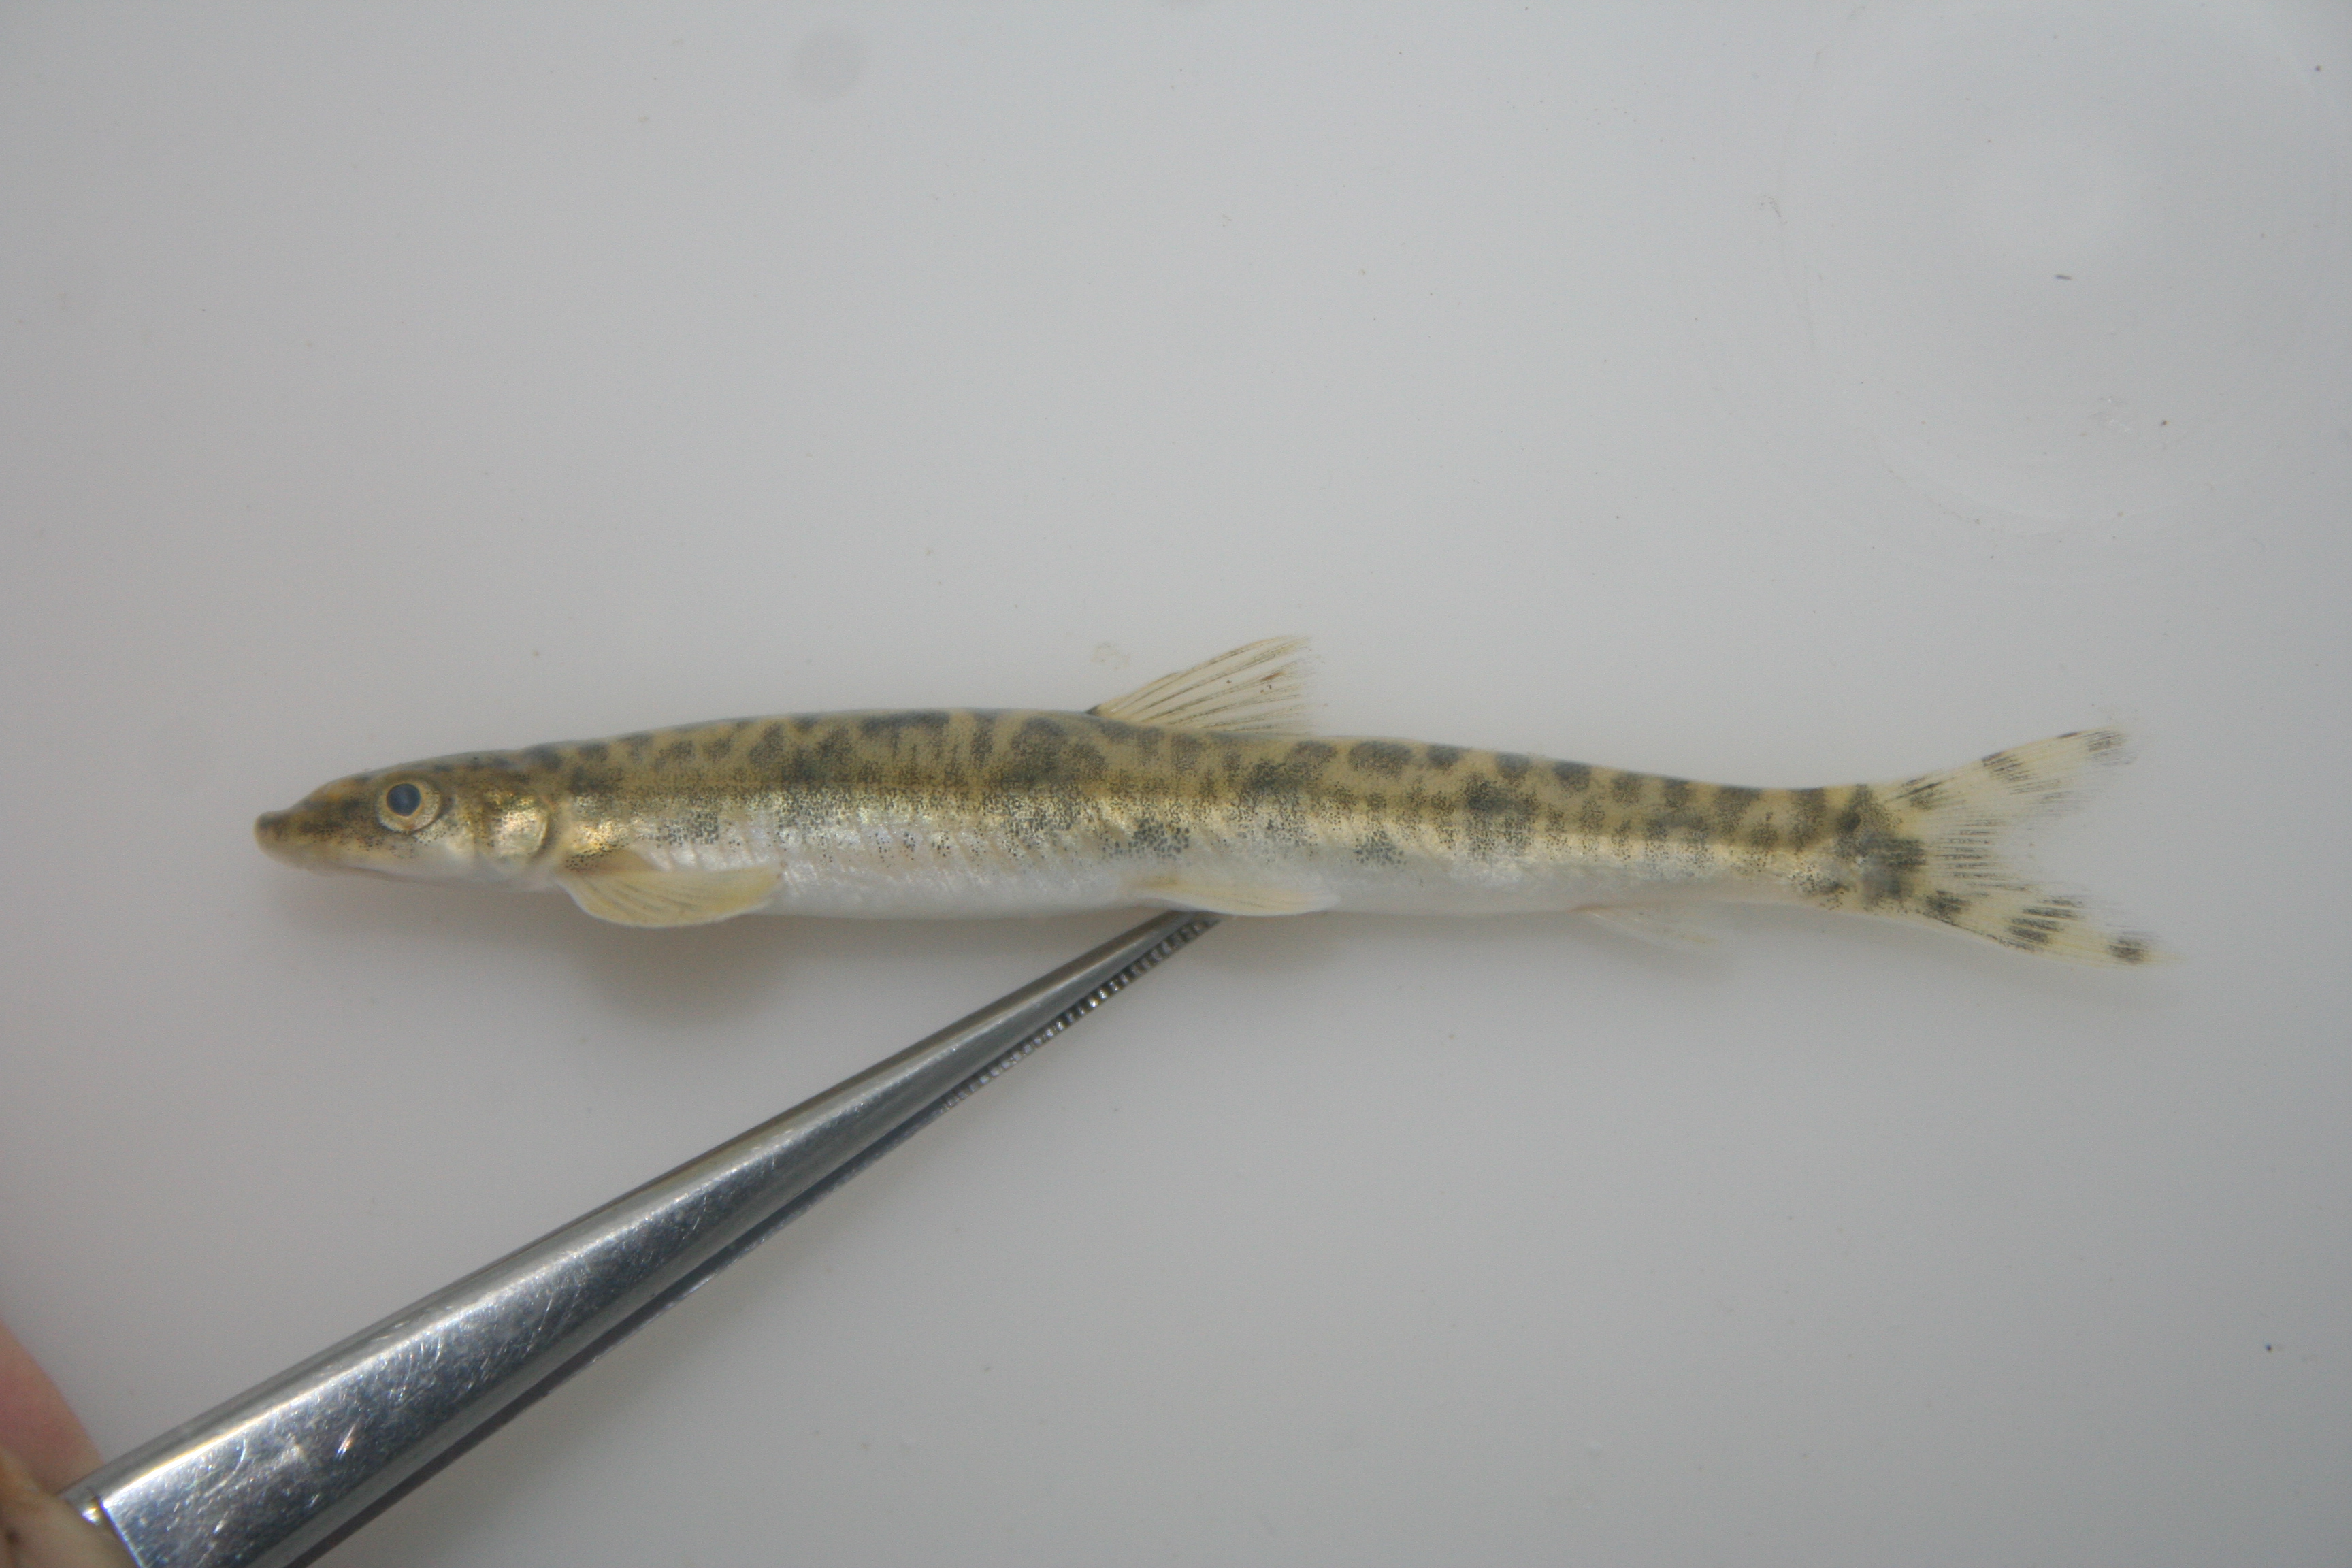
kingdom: Animalia
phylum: Chordata
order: Gonorynchiformes
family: Kneriidae
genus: Parakneria
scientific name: Parakneria marmorata
